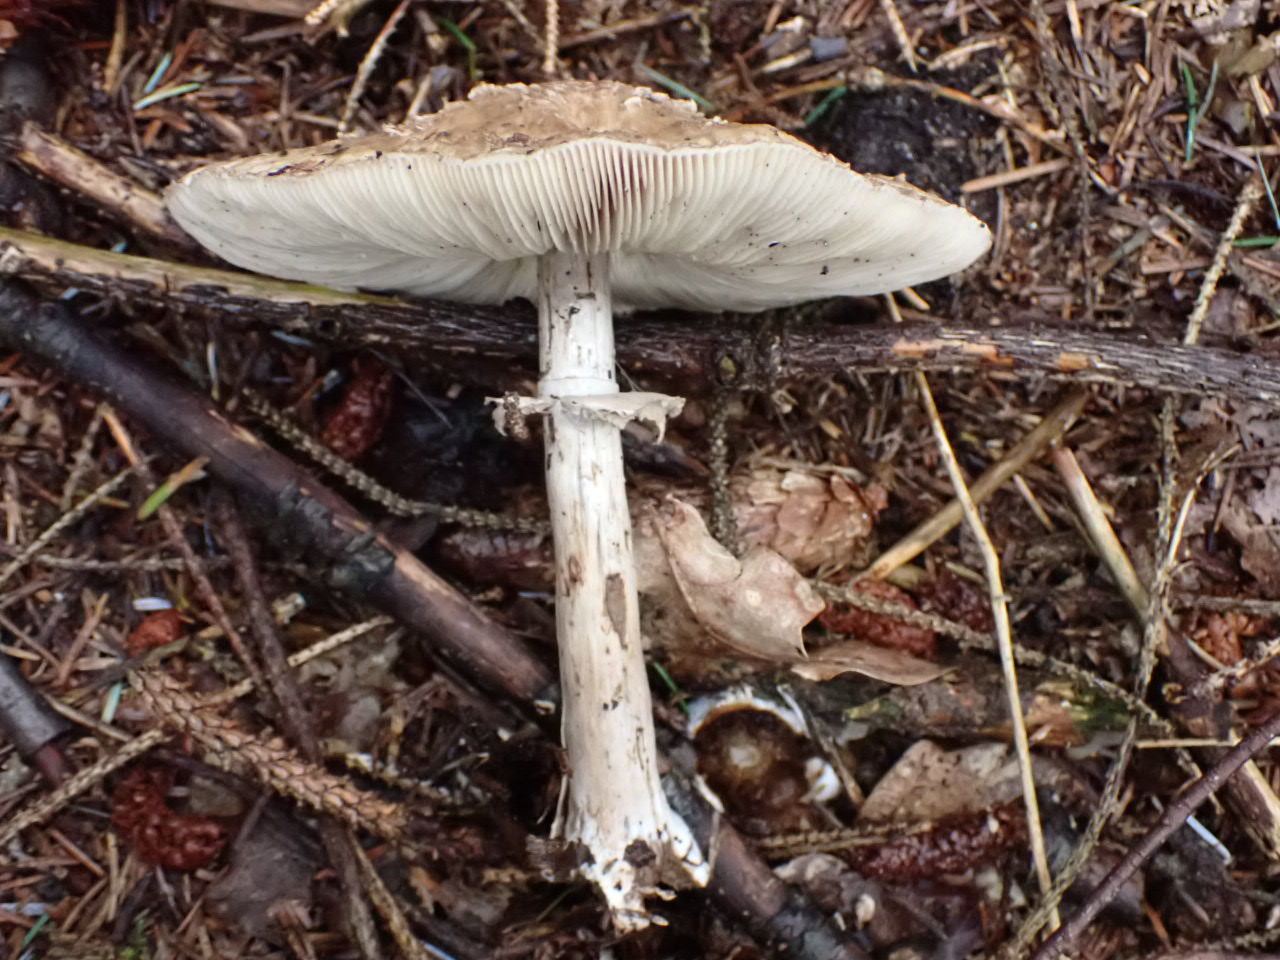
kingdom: Fungi
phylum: Basidiomycota
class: Agaricomycetes
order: Agaricales
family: Agaricaceae
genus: Chlorophyllum
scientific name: Chlorophyllum olivieri
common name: almindelig rabarberhat
